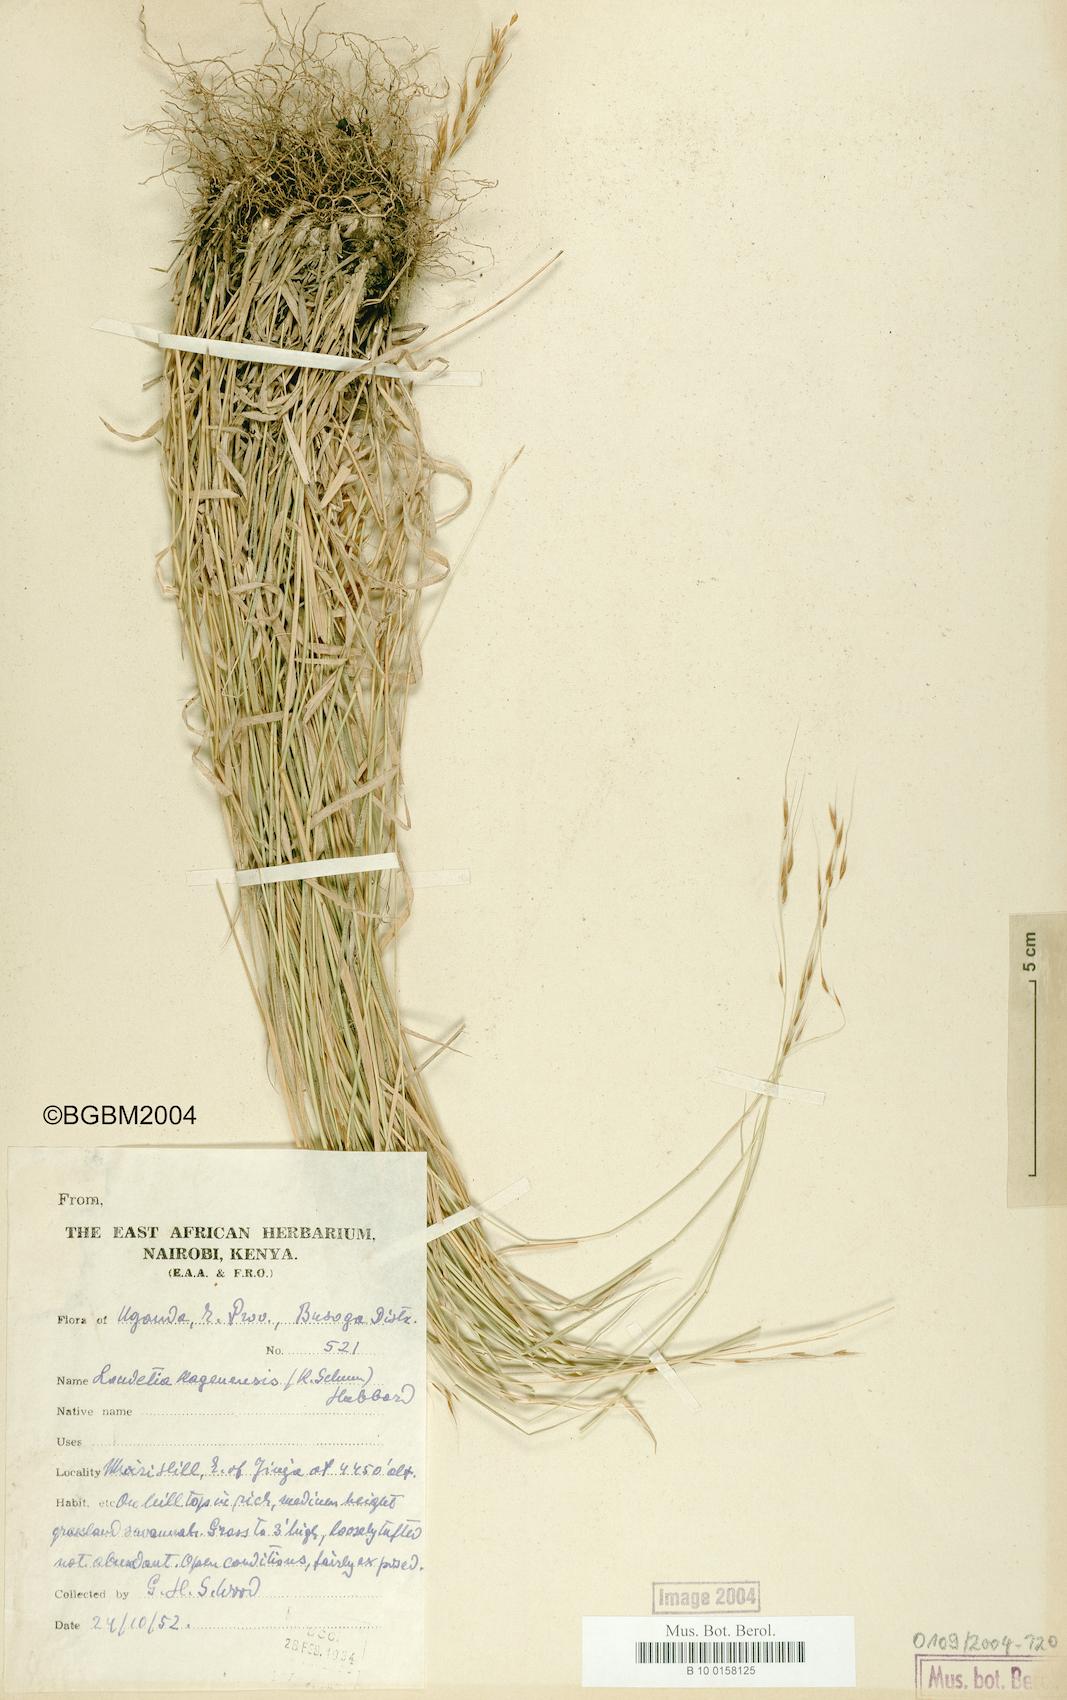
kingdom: Plantae
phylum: Tracheophyta
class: Liliopsida
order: Poales
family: Poaceae
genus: Loudetia
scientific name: Loudetia kagerensis
